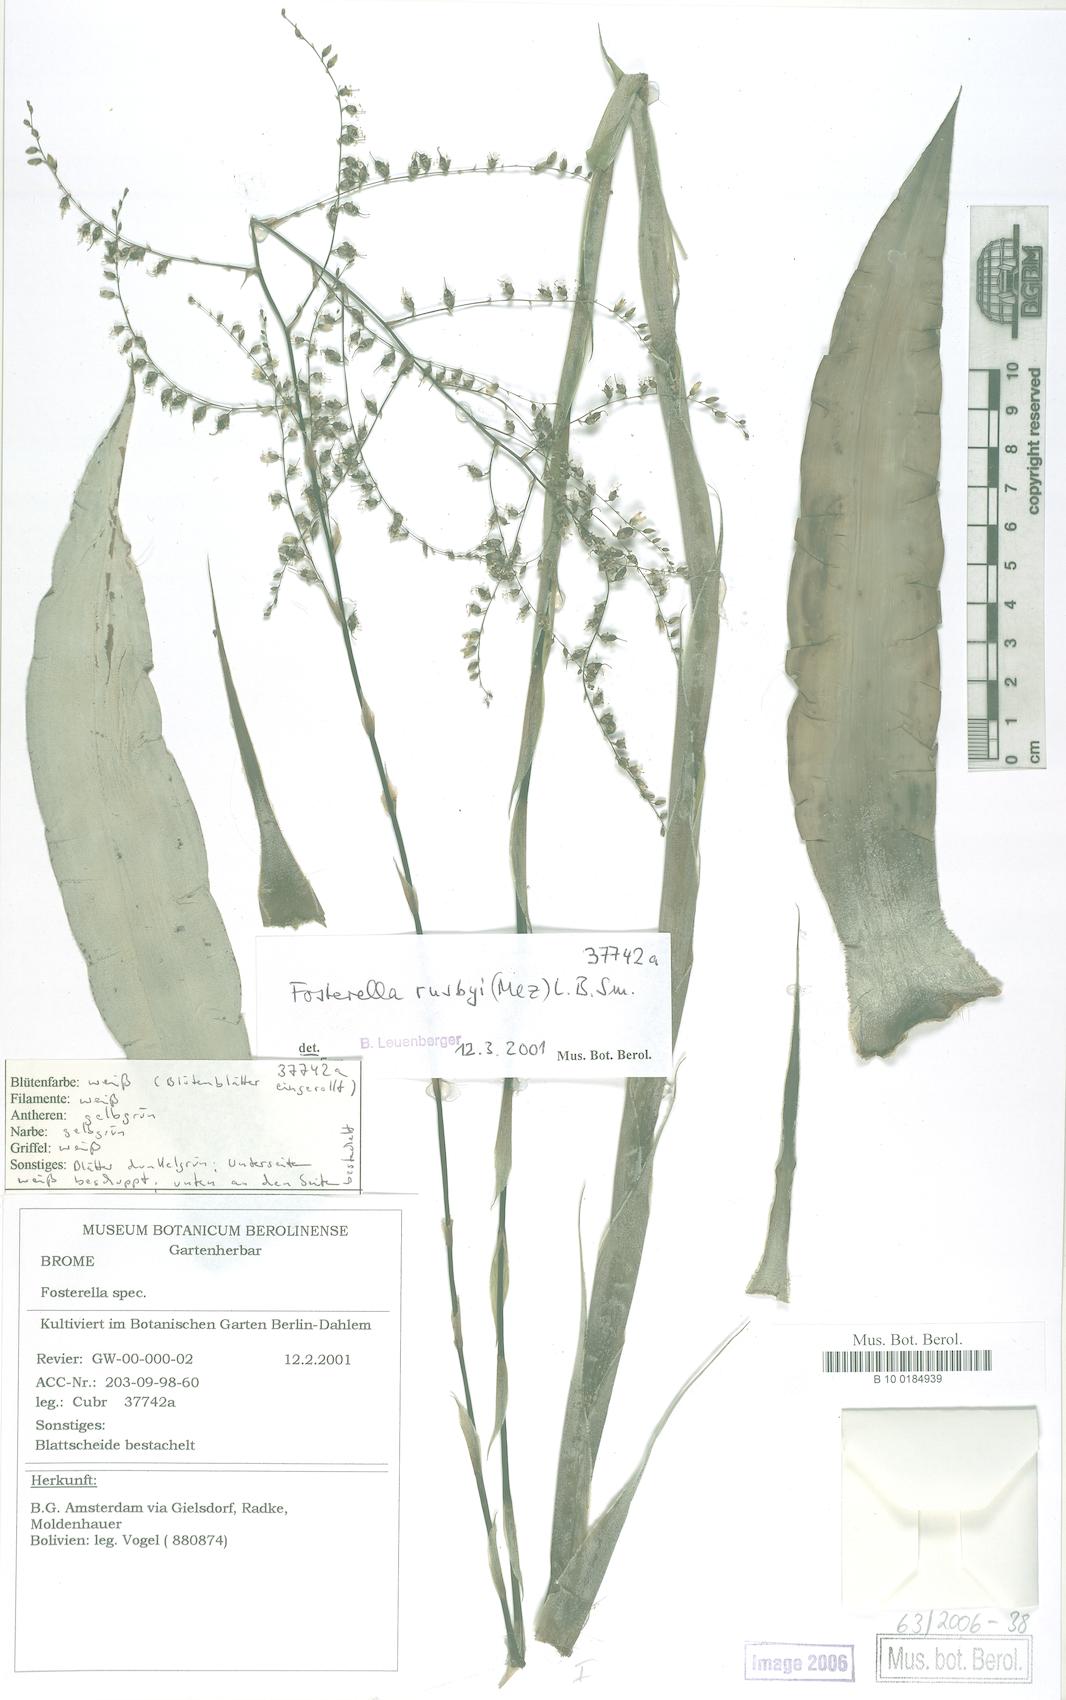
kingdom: Plantae
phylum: Tracheophyta
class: Liliopsida
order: Poales
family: Bromeliaceae
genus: Fosterella
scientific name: Fosterella rusbyi
